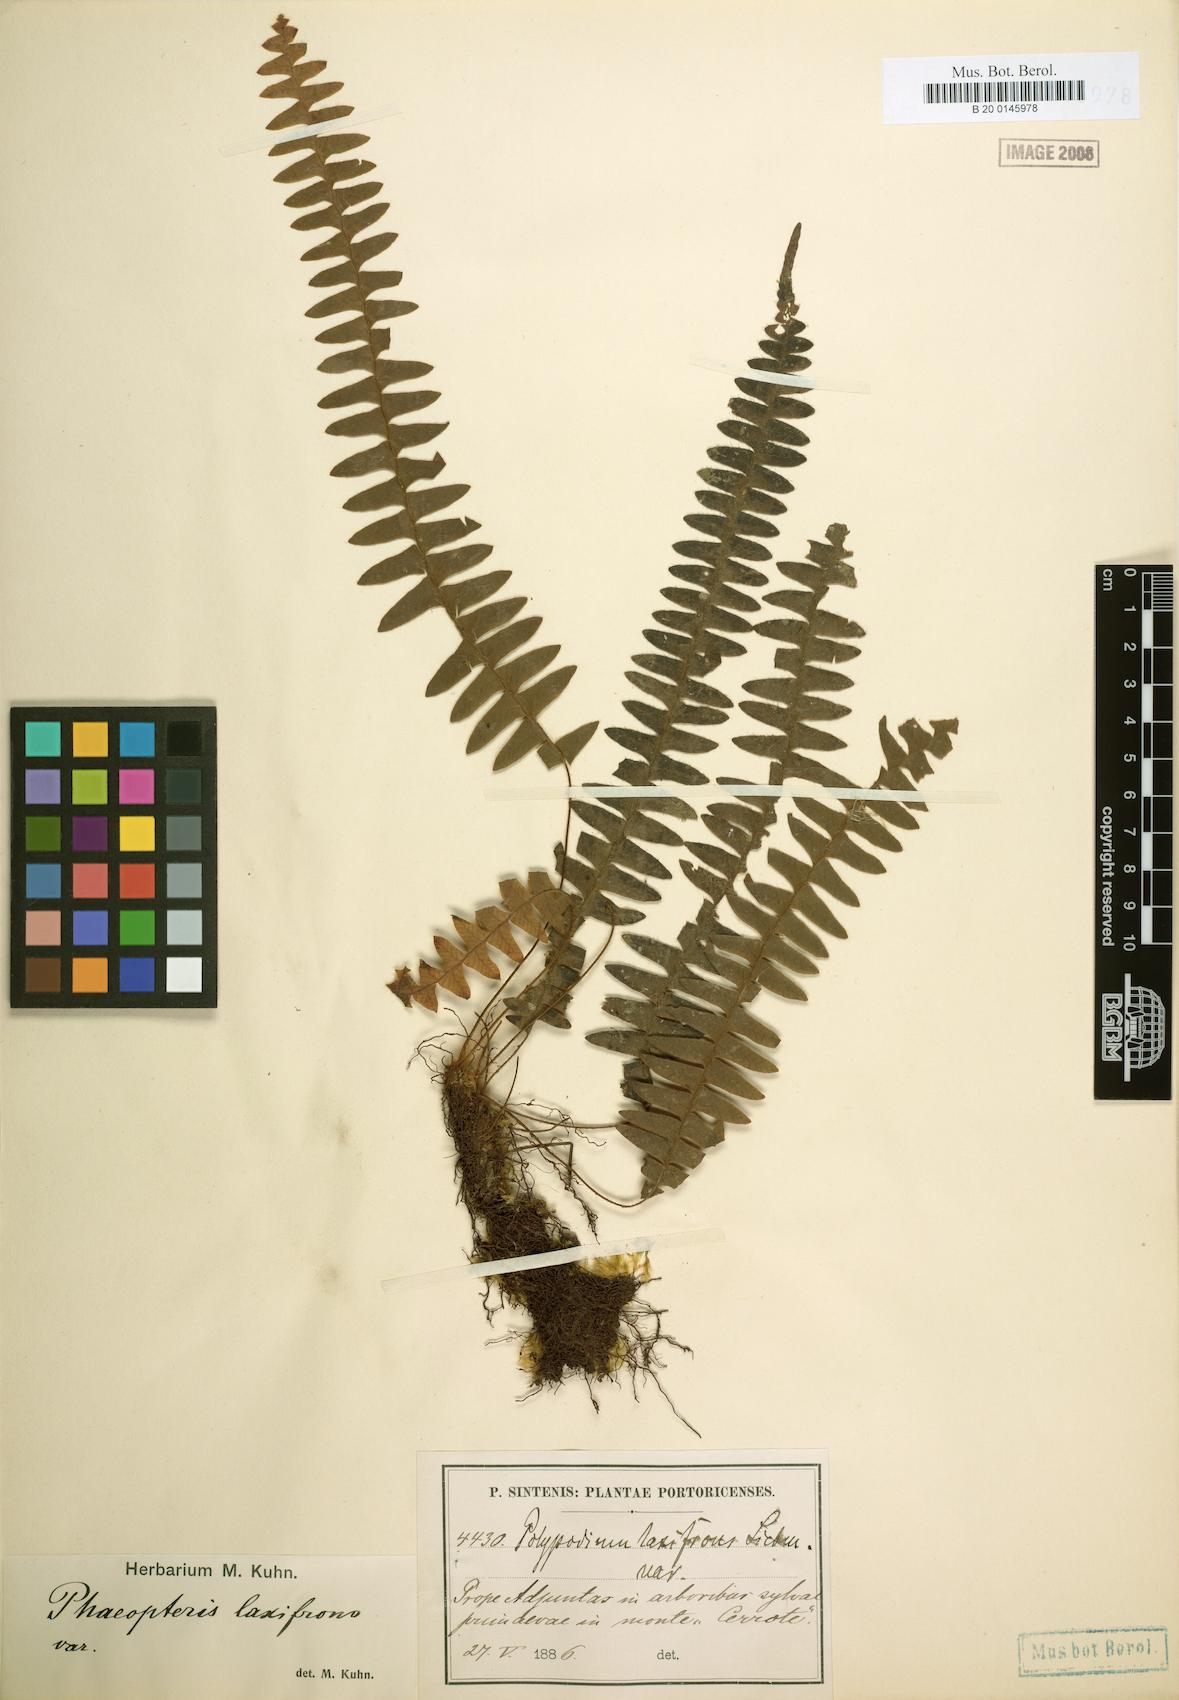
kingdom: Plantae
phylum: Tracheophyta
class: Polypodiopsida
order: Polypodiales
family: Polypodiaceae
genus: Terpsichore
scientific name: Terpsichore asplenifolia
